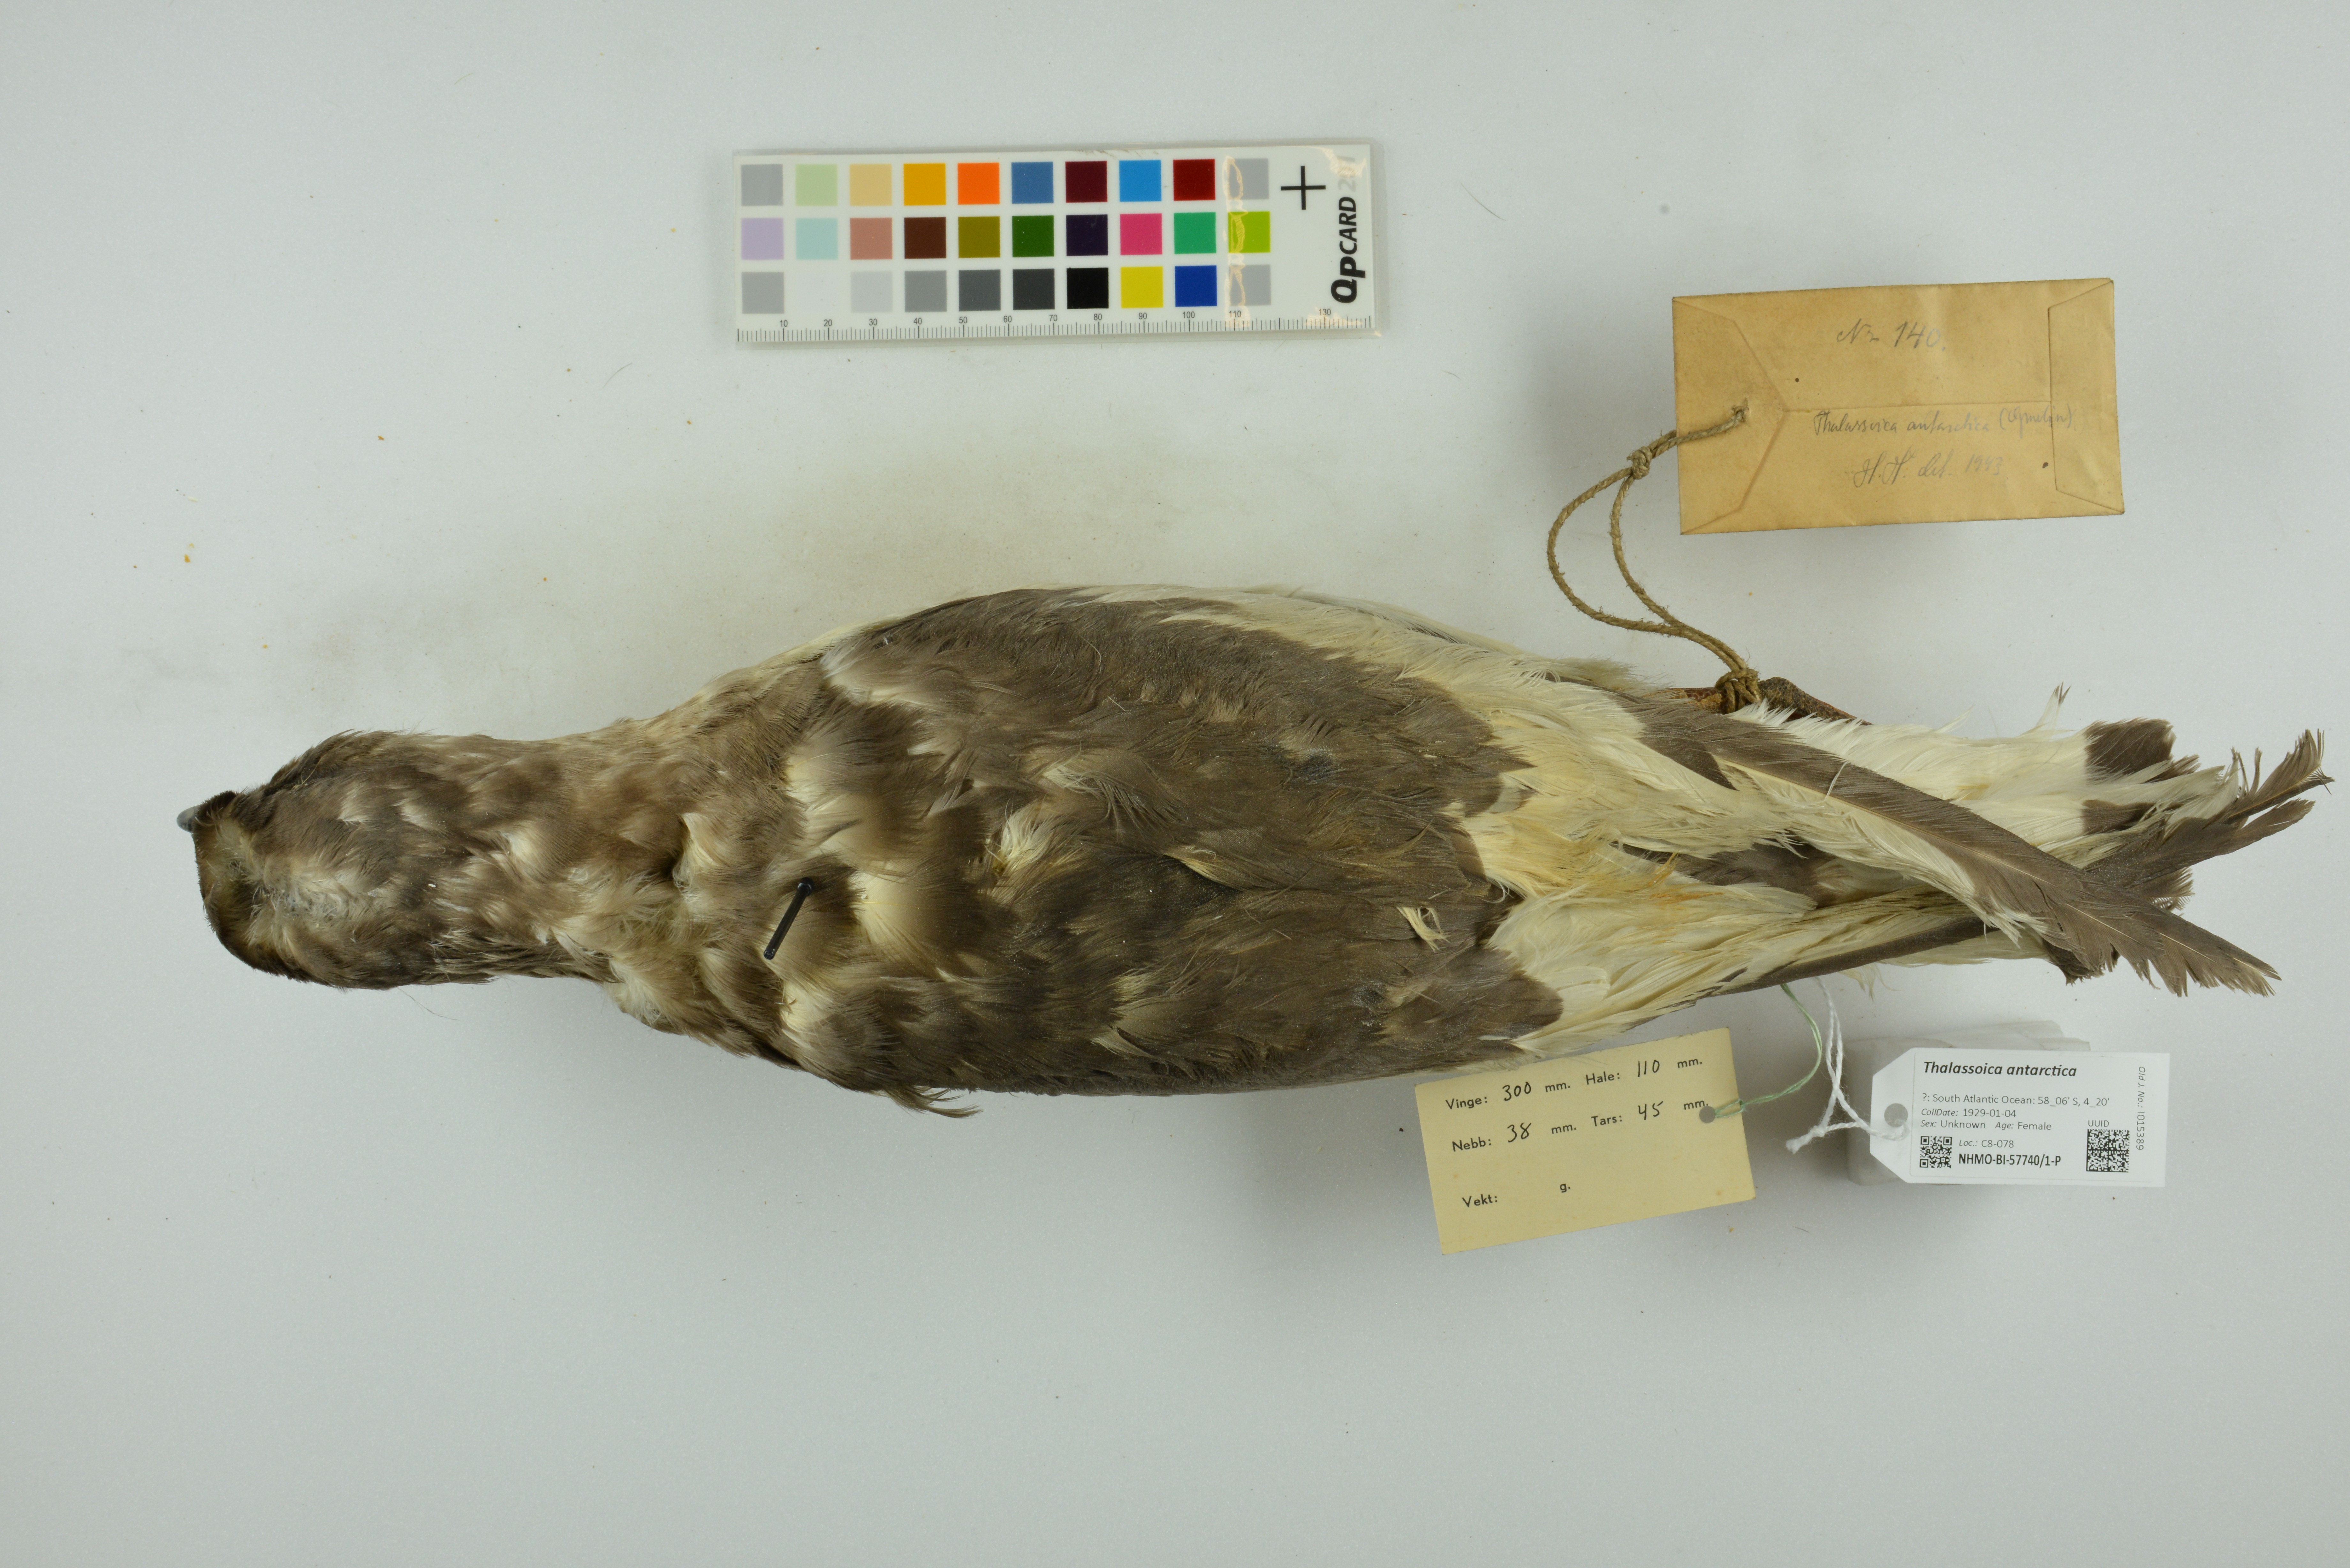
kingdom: Animalia
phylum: Chordata
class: Aves
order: Procellariiformes
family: Procellariidae
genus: Thalassoica
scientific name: Thalassoica antarctica
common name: Antarctic petrel
